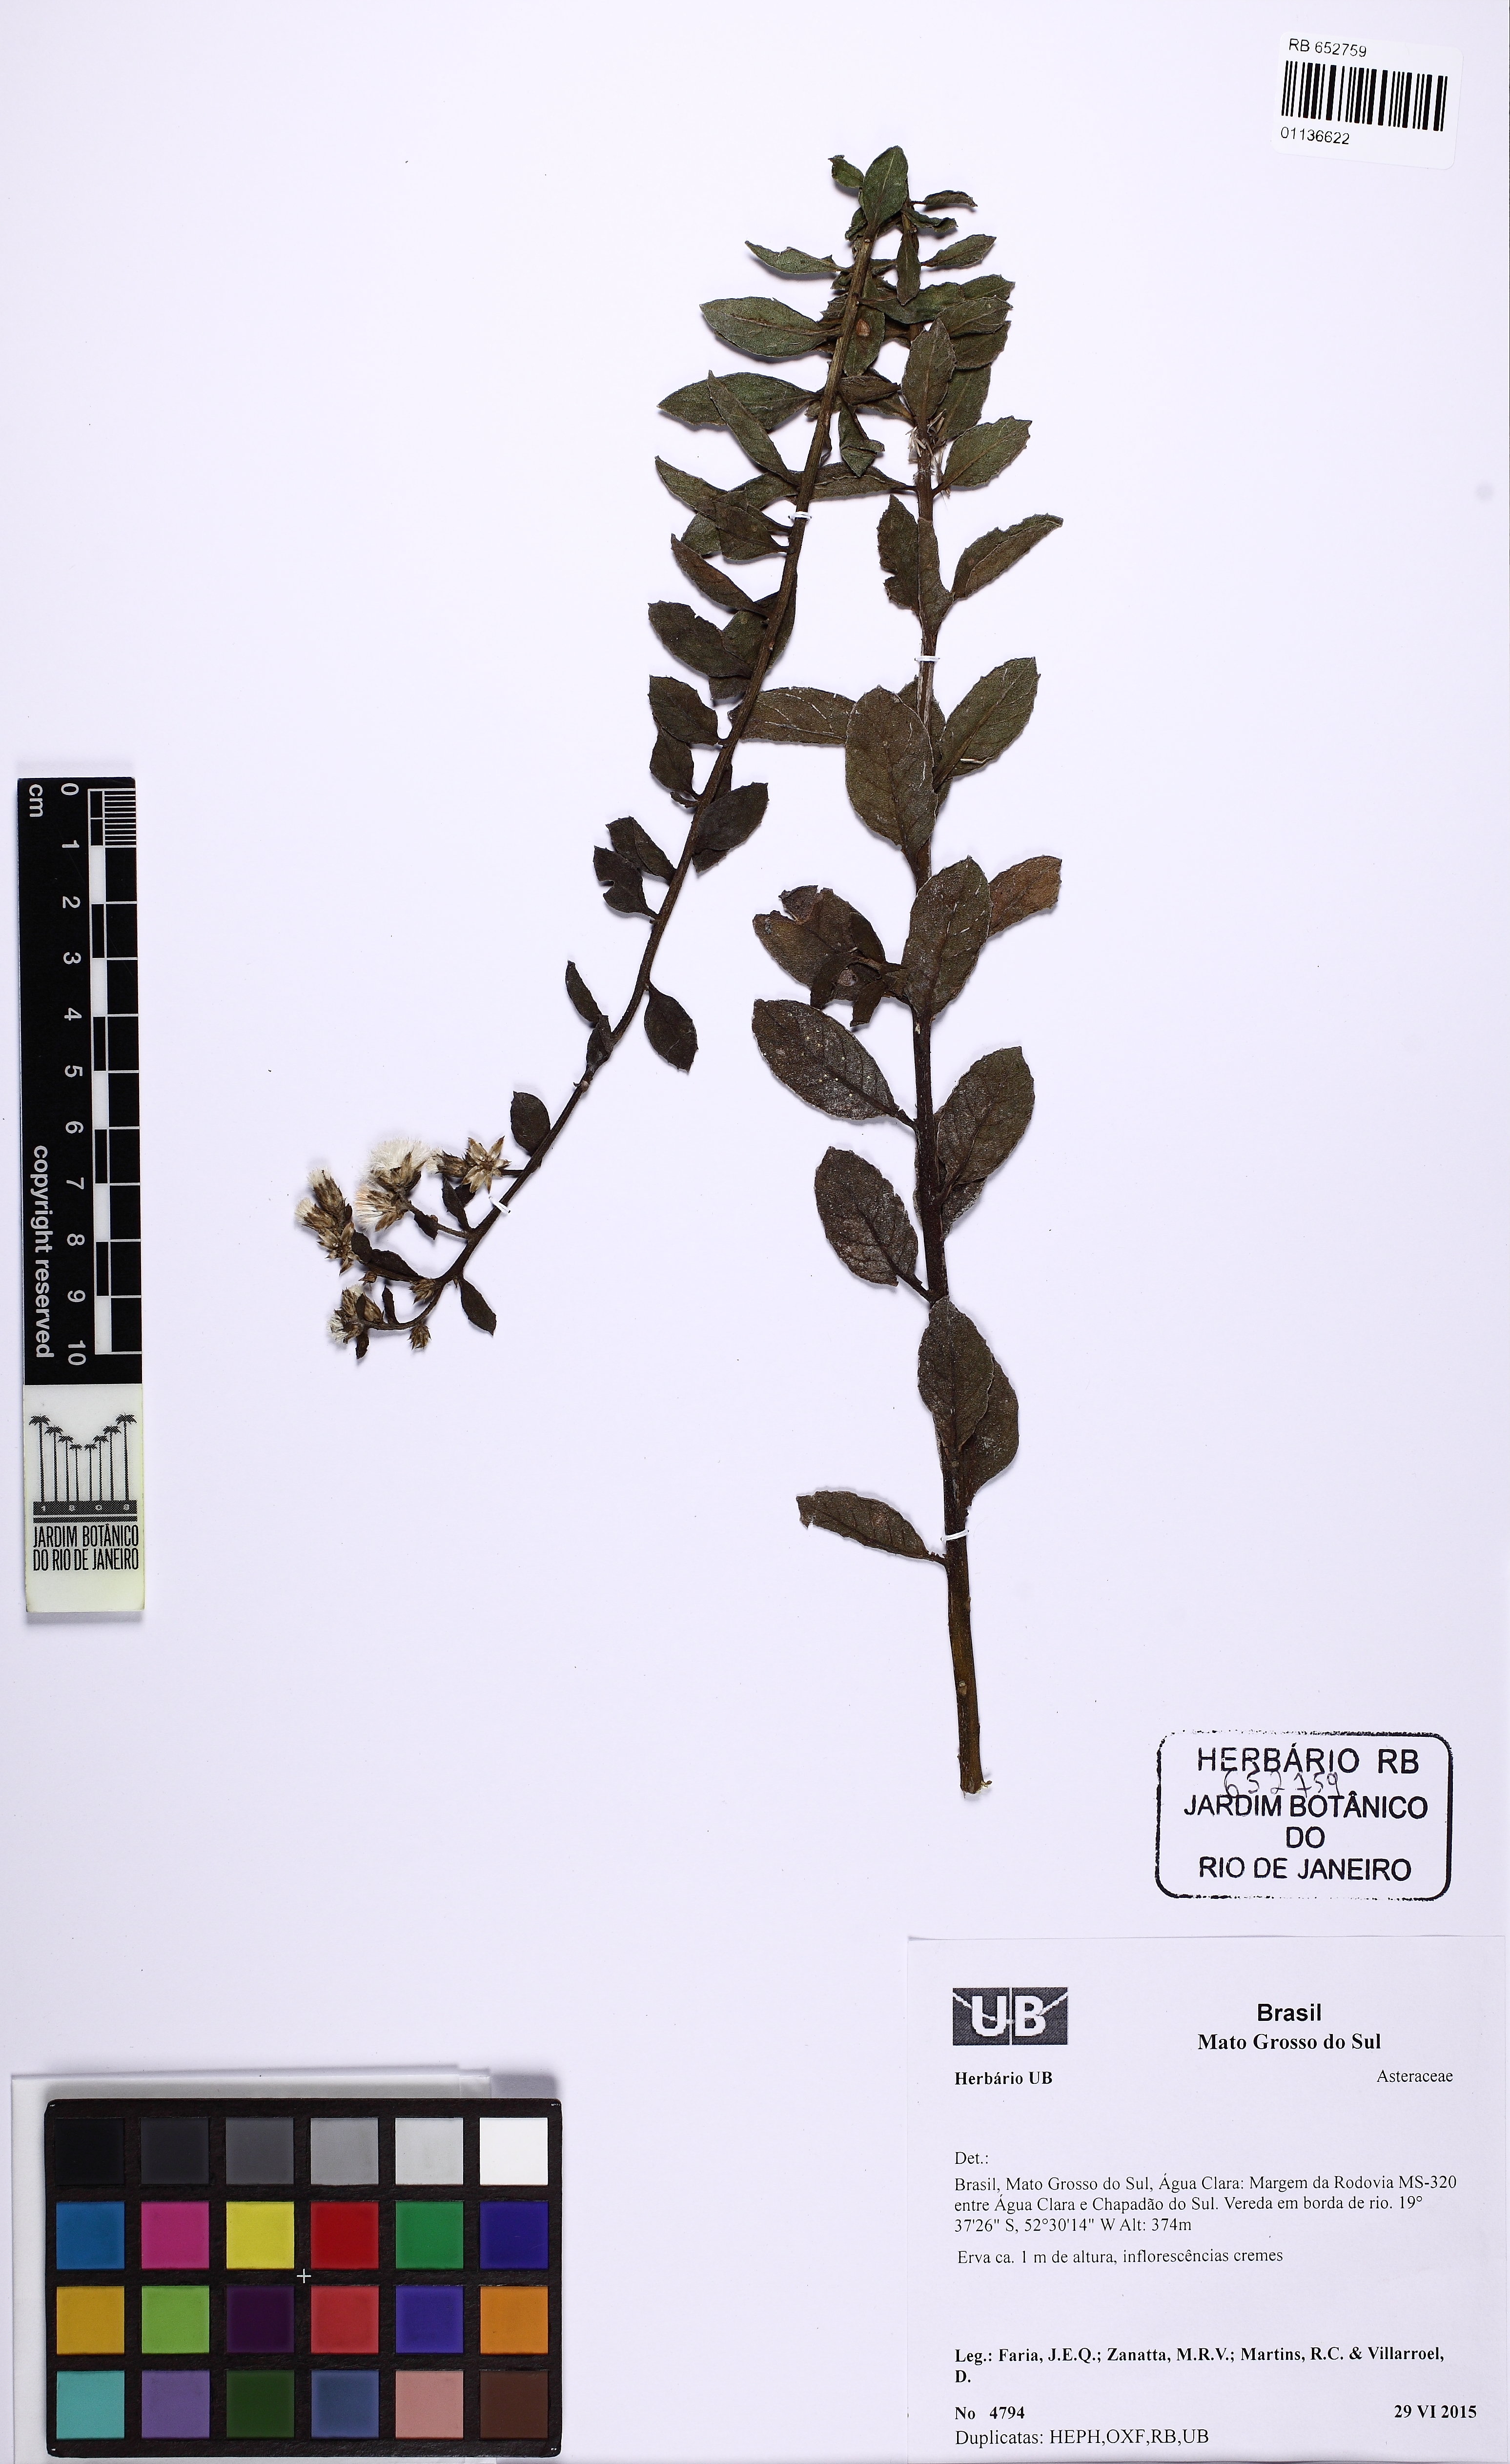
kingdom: Plantae
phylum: Tracheophyta
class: Magnoliopsida
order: Asterales
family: Asteraceae
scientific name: Asteraceae
